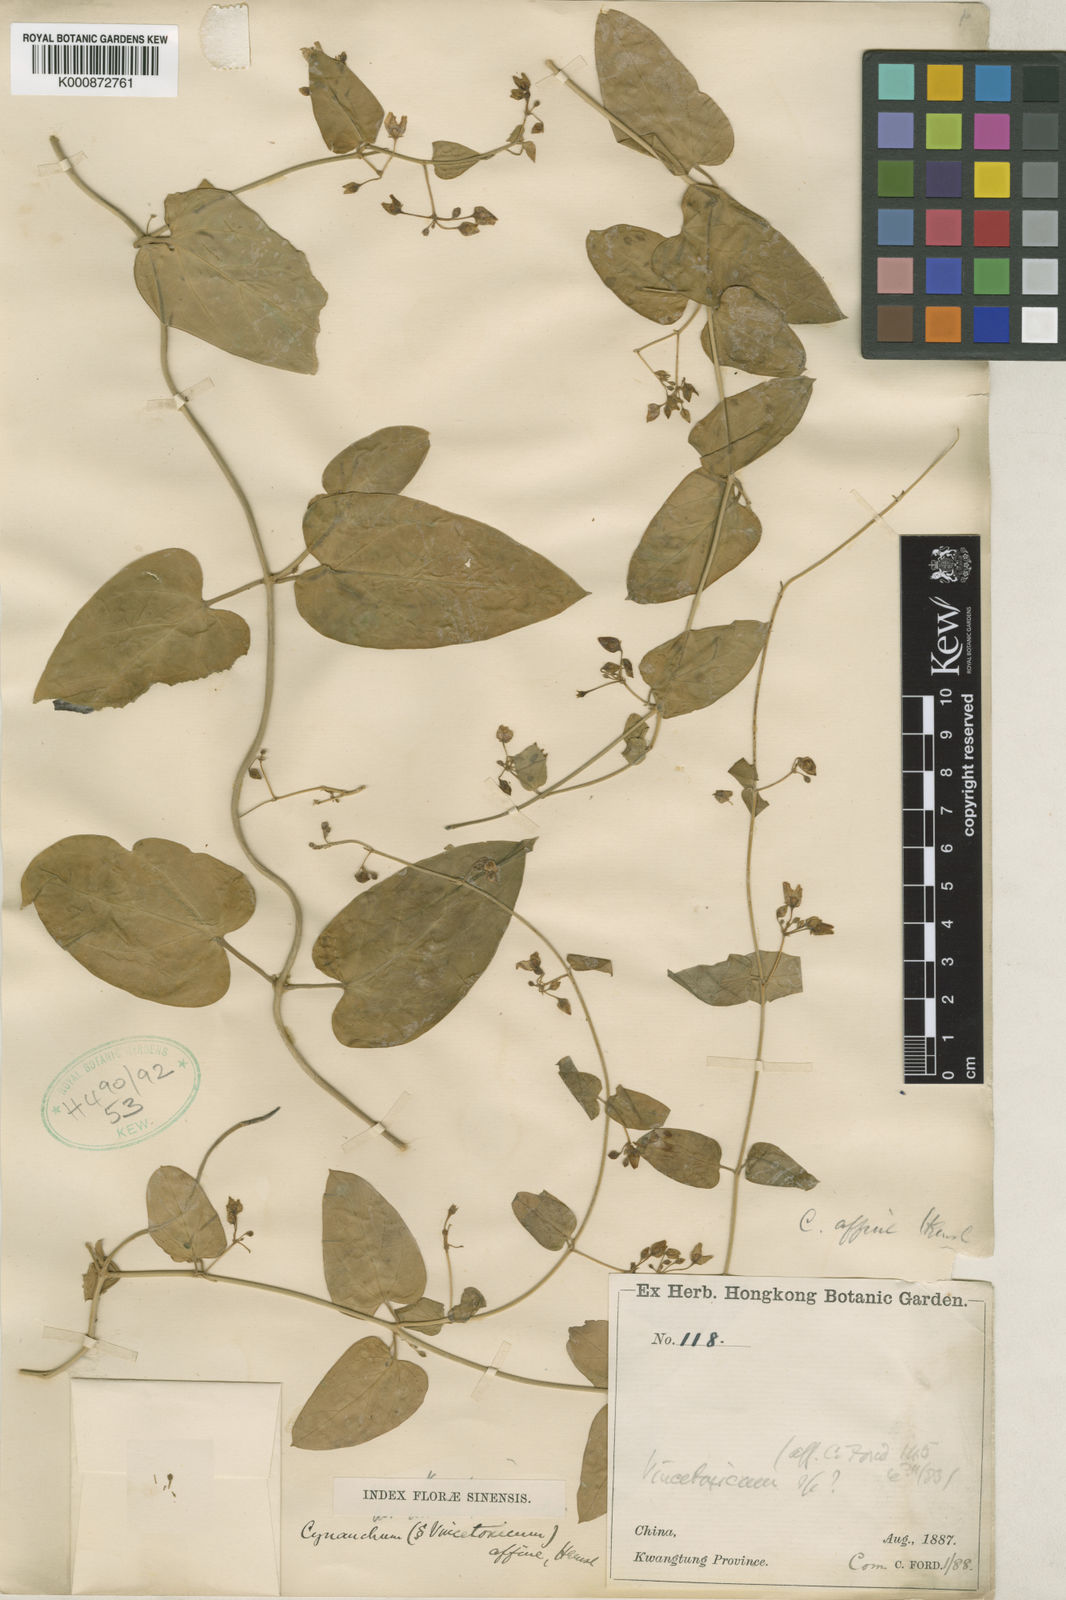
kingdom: Plantae
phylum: Tracheophyta
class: Magnoliopsida
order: Gentianales
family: Apocynaceae
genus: Cynanchum
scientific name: Cynanchum mooreanum
